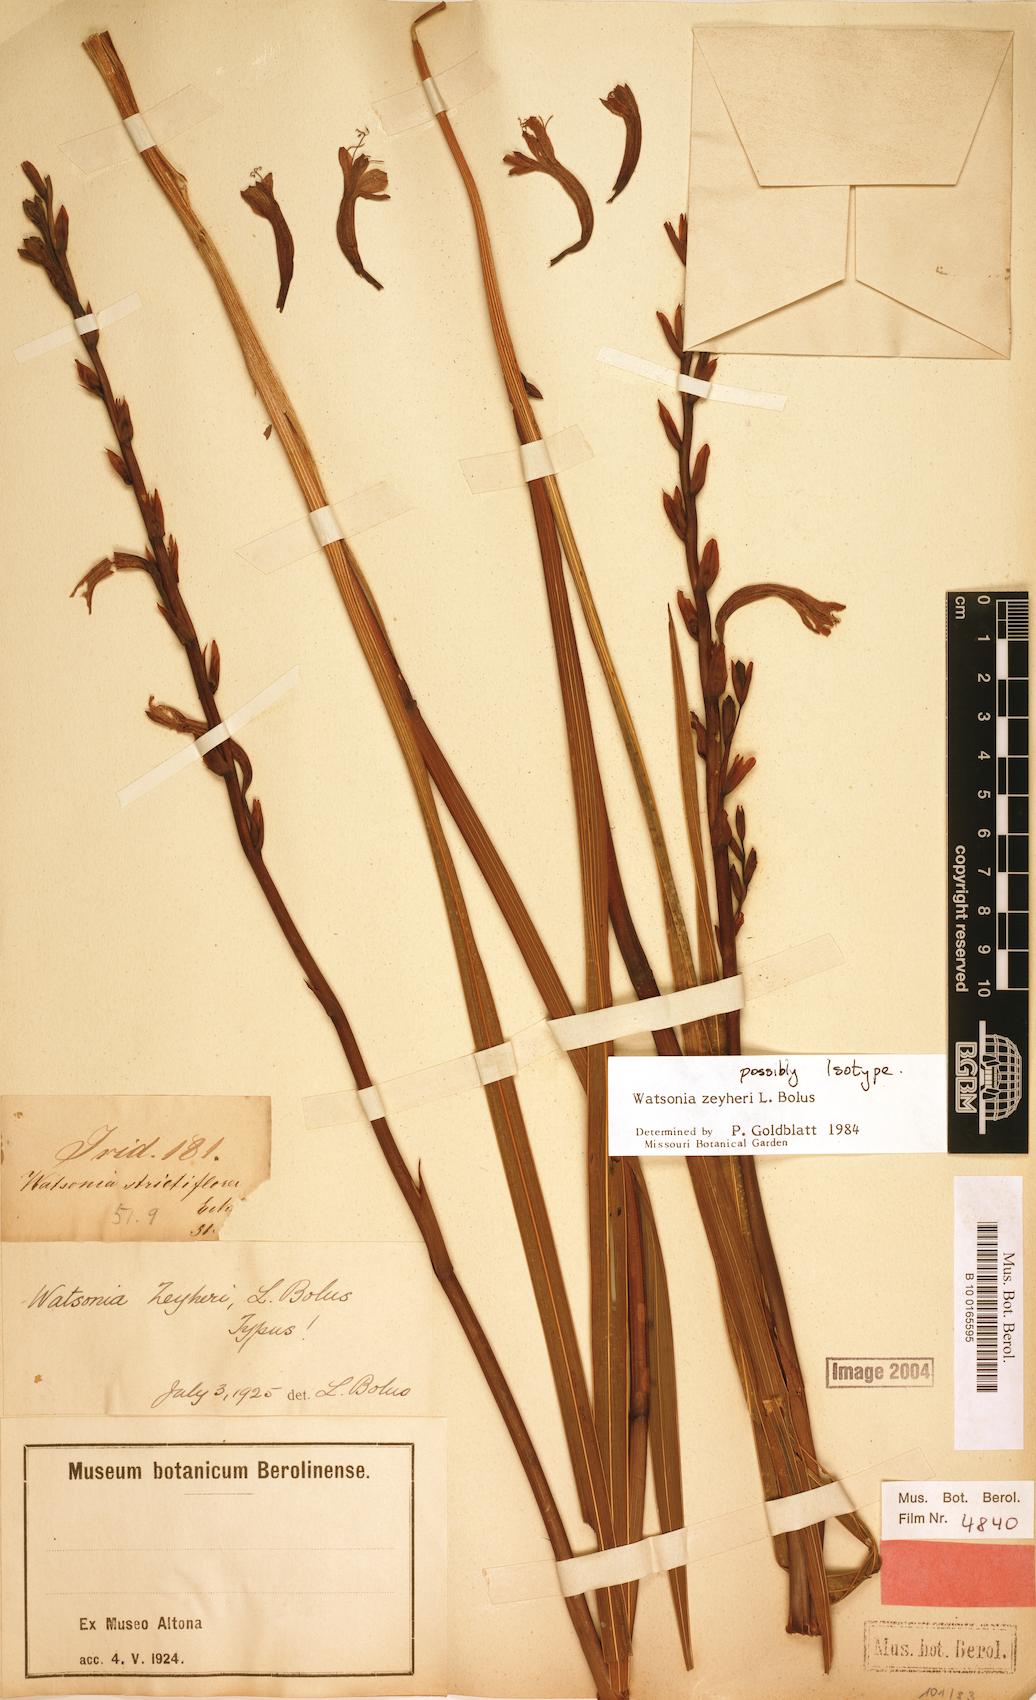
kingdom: Plantae
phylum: Tracheophyta
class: Liliopsida
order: Asparagales
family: Iridaceae
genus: Watsonia
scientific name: Watsonia zeyheri
